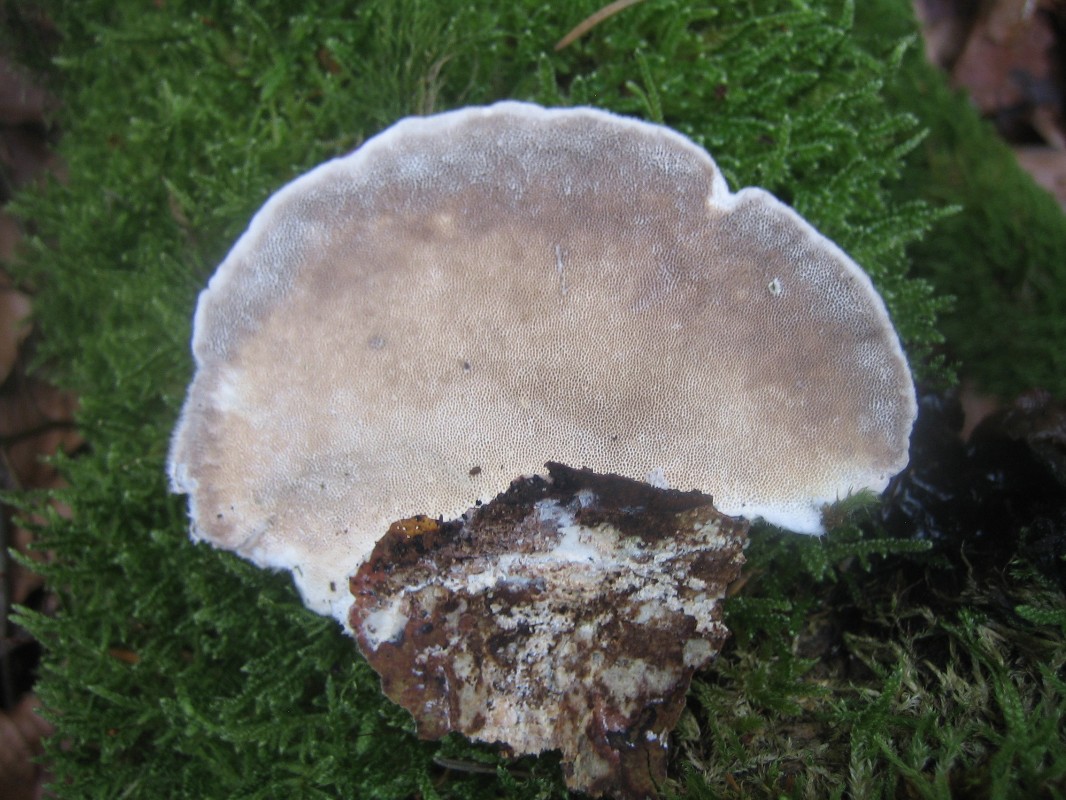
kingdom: Fungi
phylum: Basidiomycota
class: Agaricomycetes
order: Polyporales
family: Polyporaceae
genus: Trametes
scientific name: Trametes hirsuta
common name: håret læderporesvamp
